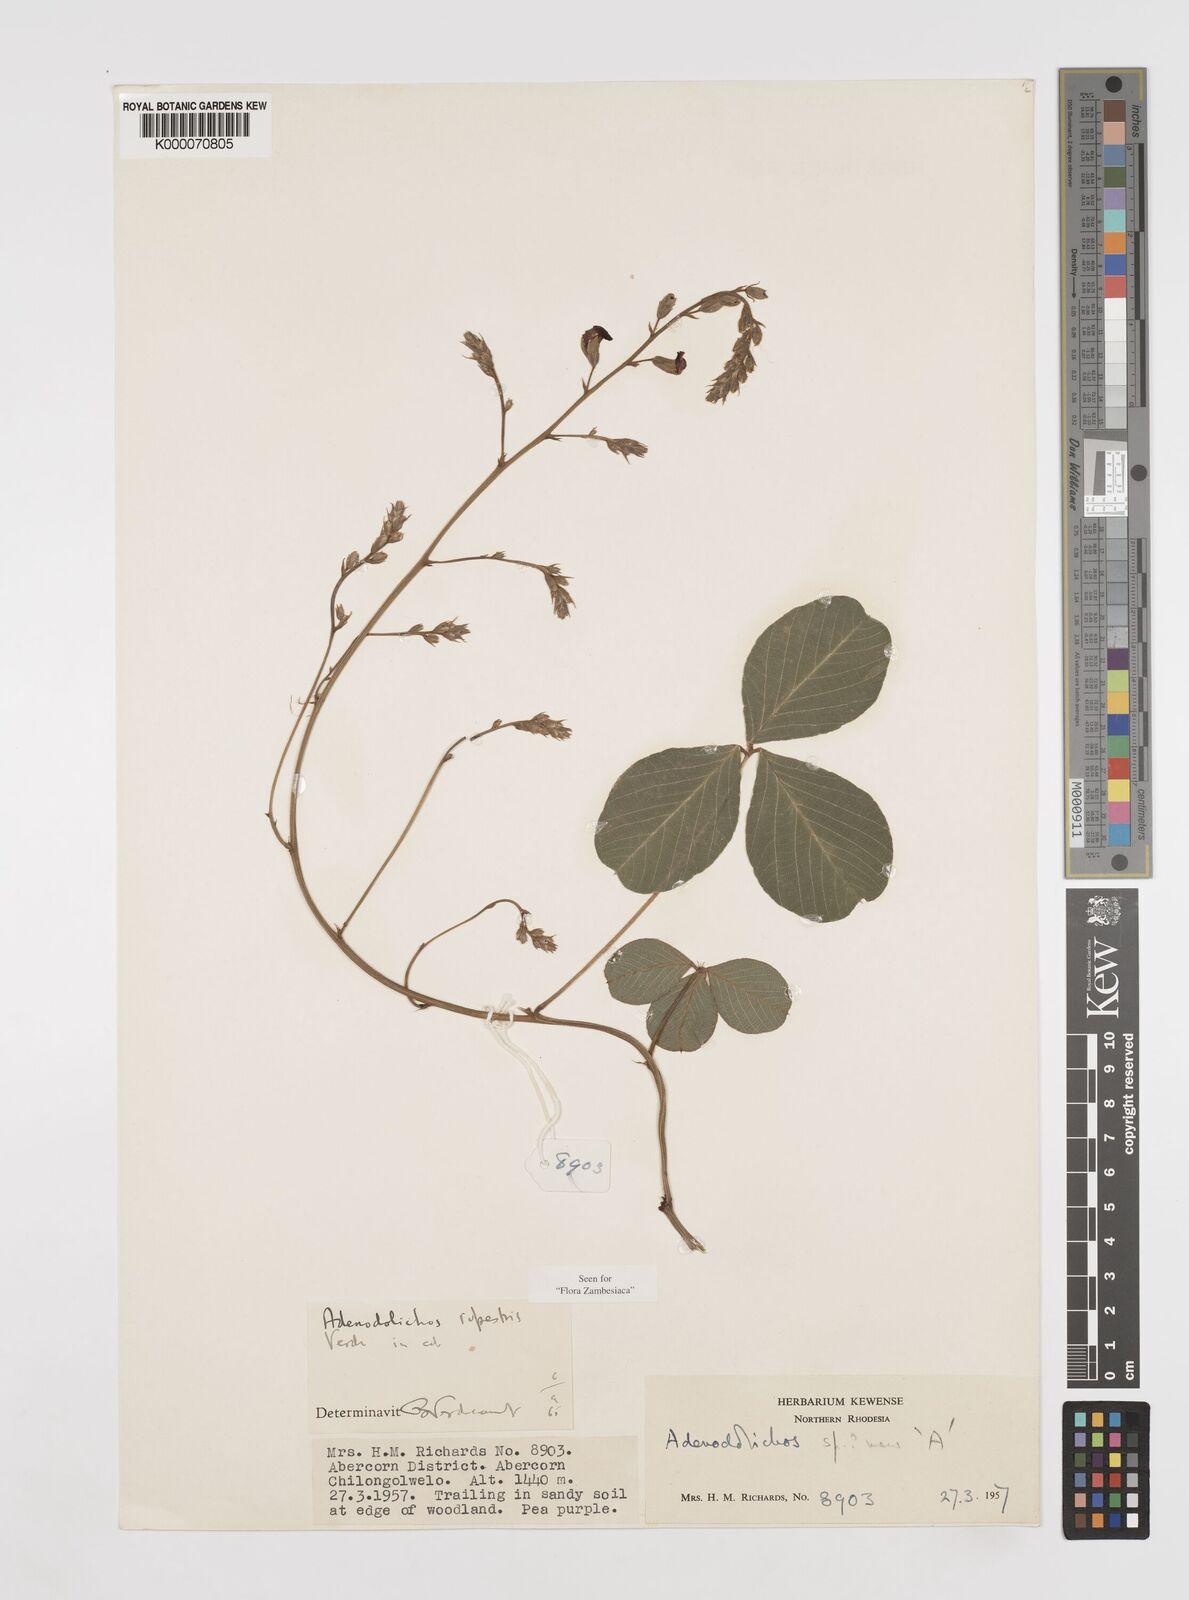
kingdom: Plantae
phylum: Tracheophyta
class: Magnoliopsida
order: Fabales
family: Fabaceae
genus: Adenodolichos
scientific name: Adenodolichos rupestris
